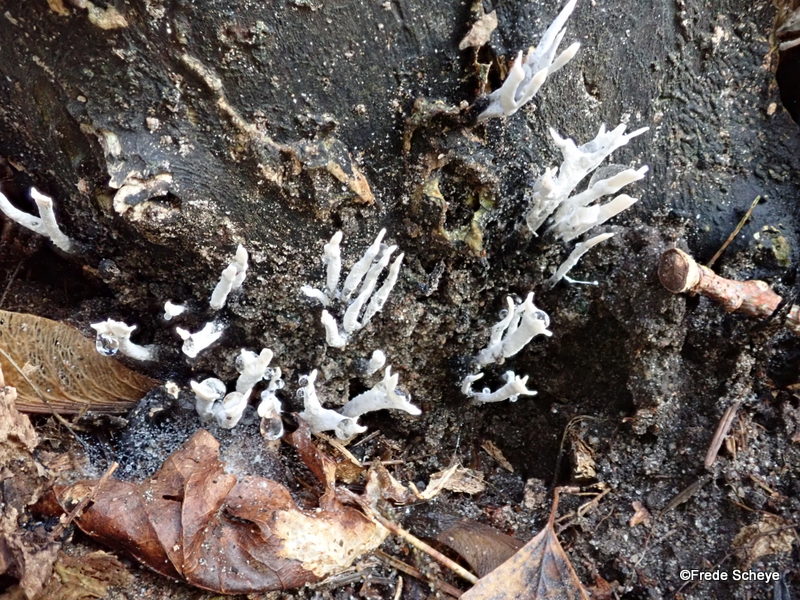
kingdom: Fungi
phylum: Ascomycota
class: Sordariomycetes
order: Xylariales
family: Xylariaceae
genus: Xylaria
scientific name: Xylaria hypoxylon
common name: grenet stødsvamp
